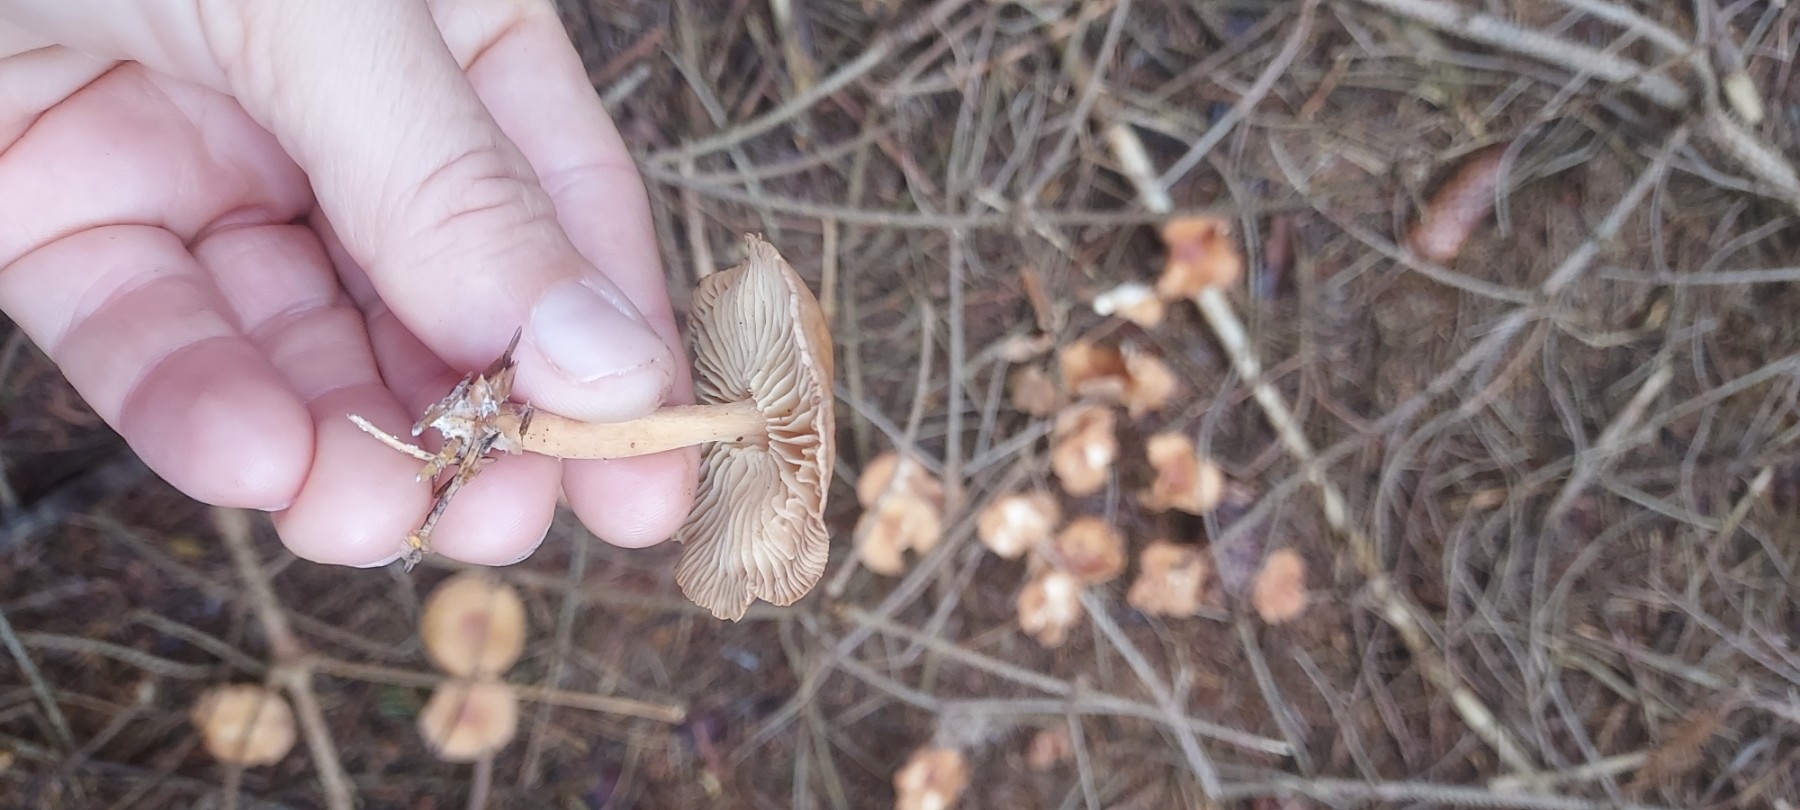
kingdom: Fungi
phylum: Basidiomycota
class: Agaricomycetes
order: Agaricales
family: Omphalotaceae
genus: Marasmiellus
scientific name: Marasmiellus
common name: bruskhat
